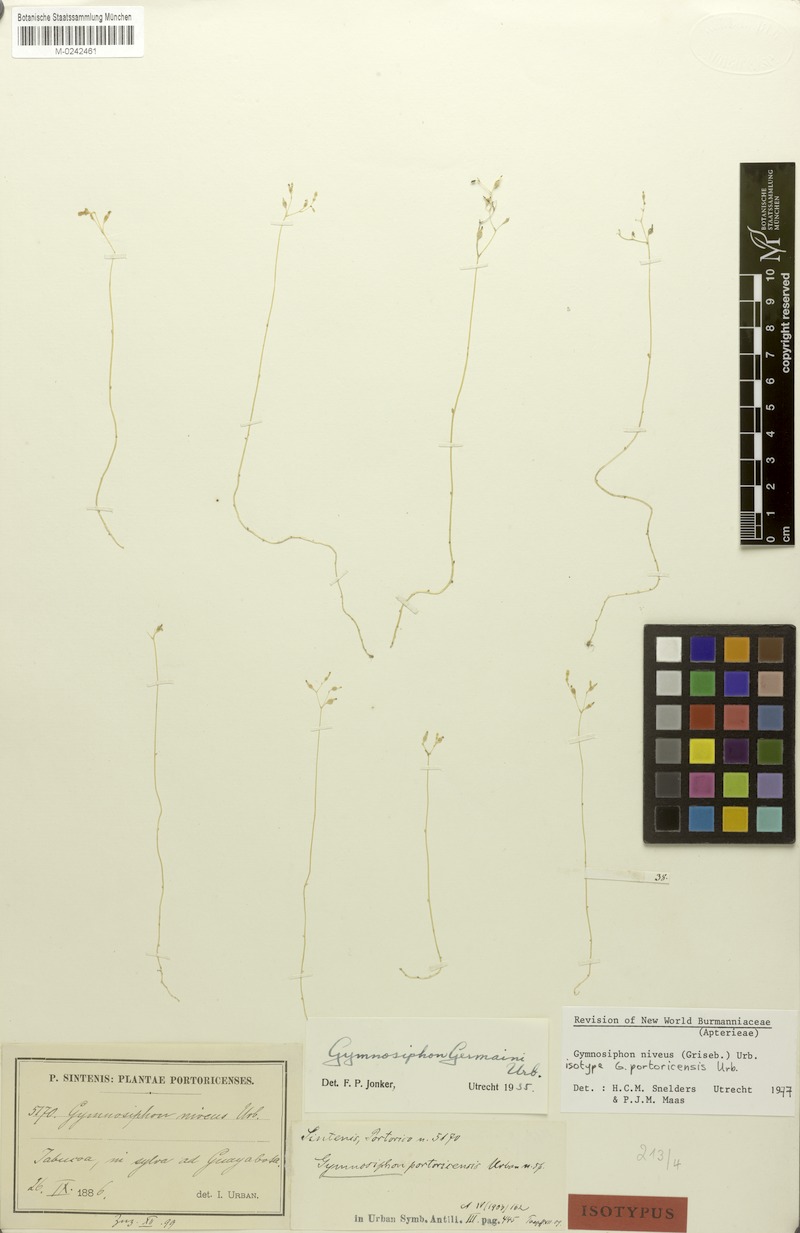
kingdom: Plantae
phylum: Tracheophyta
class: Liliopsida
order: Dioscoreales
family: Burmanniaceae
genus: Gymnosiphon
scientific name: Gymnosiphon niveus
